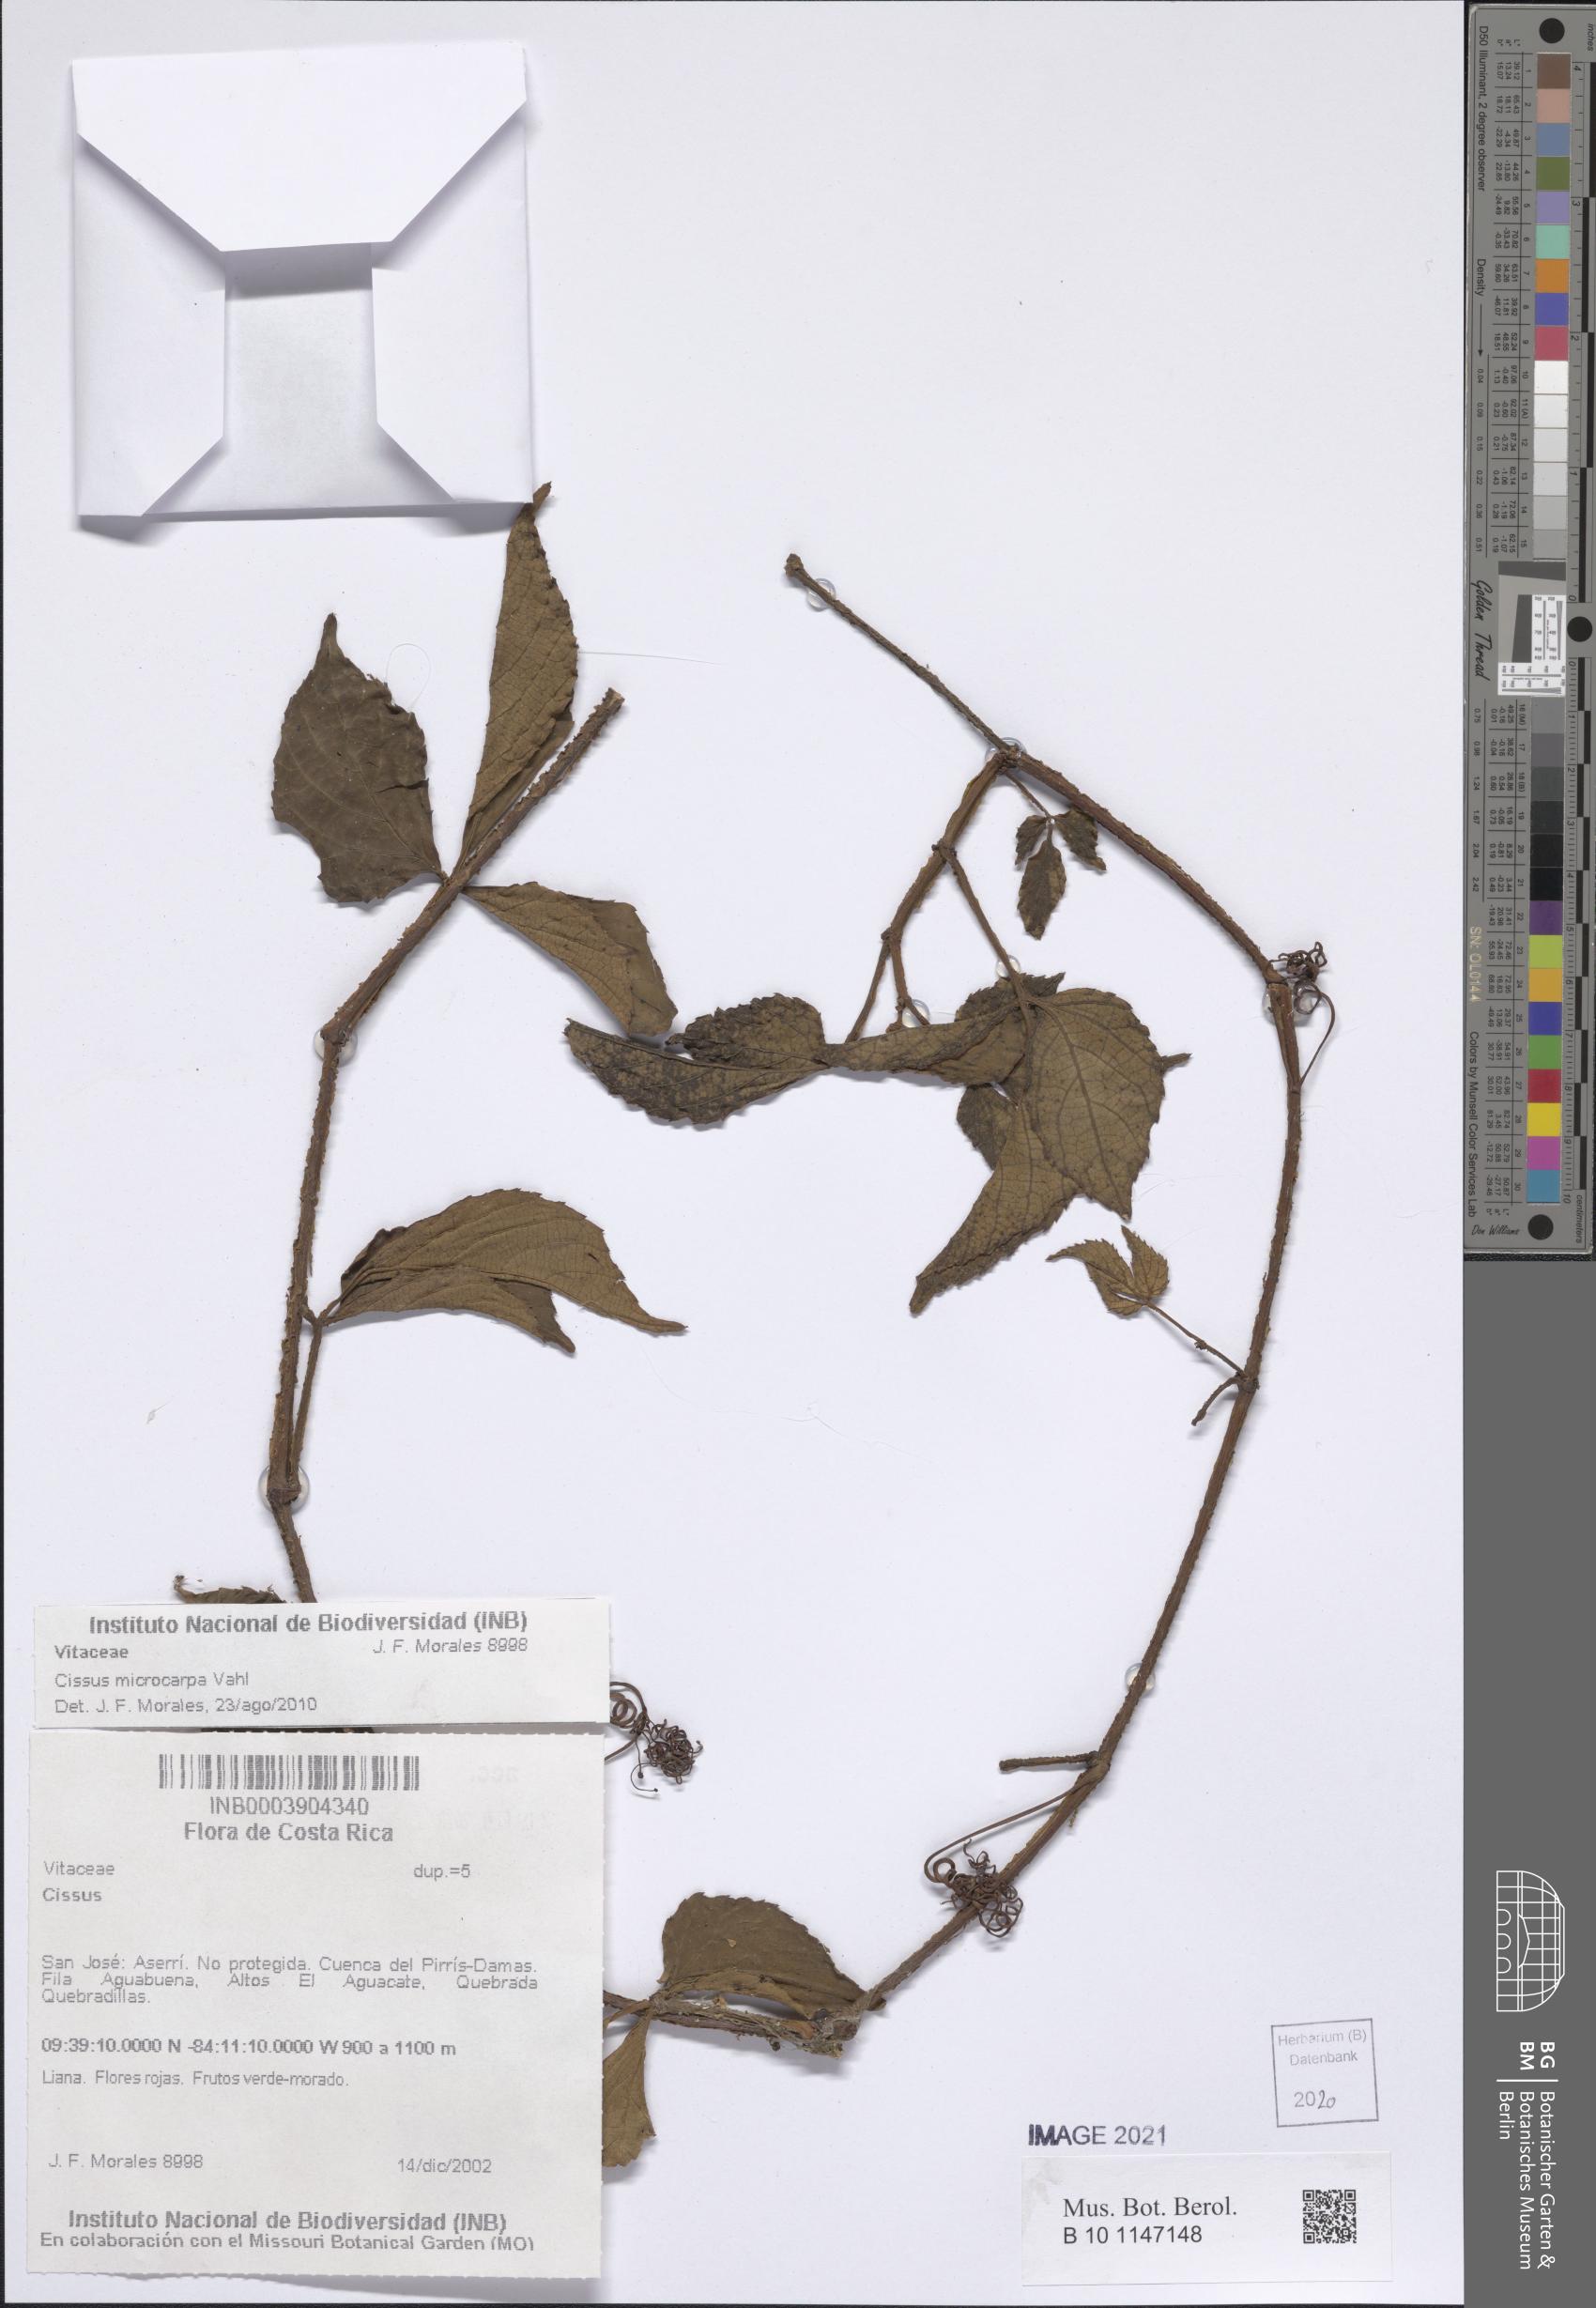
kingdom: Plantae
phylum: Tracheophyta
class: Magnoliopsida
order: Vitales
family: Vitaceae
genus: Cissus
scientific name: Cissus microcarpa
